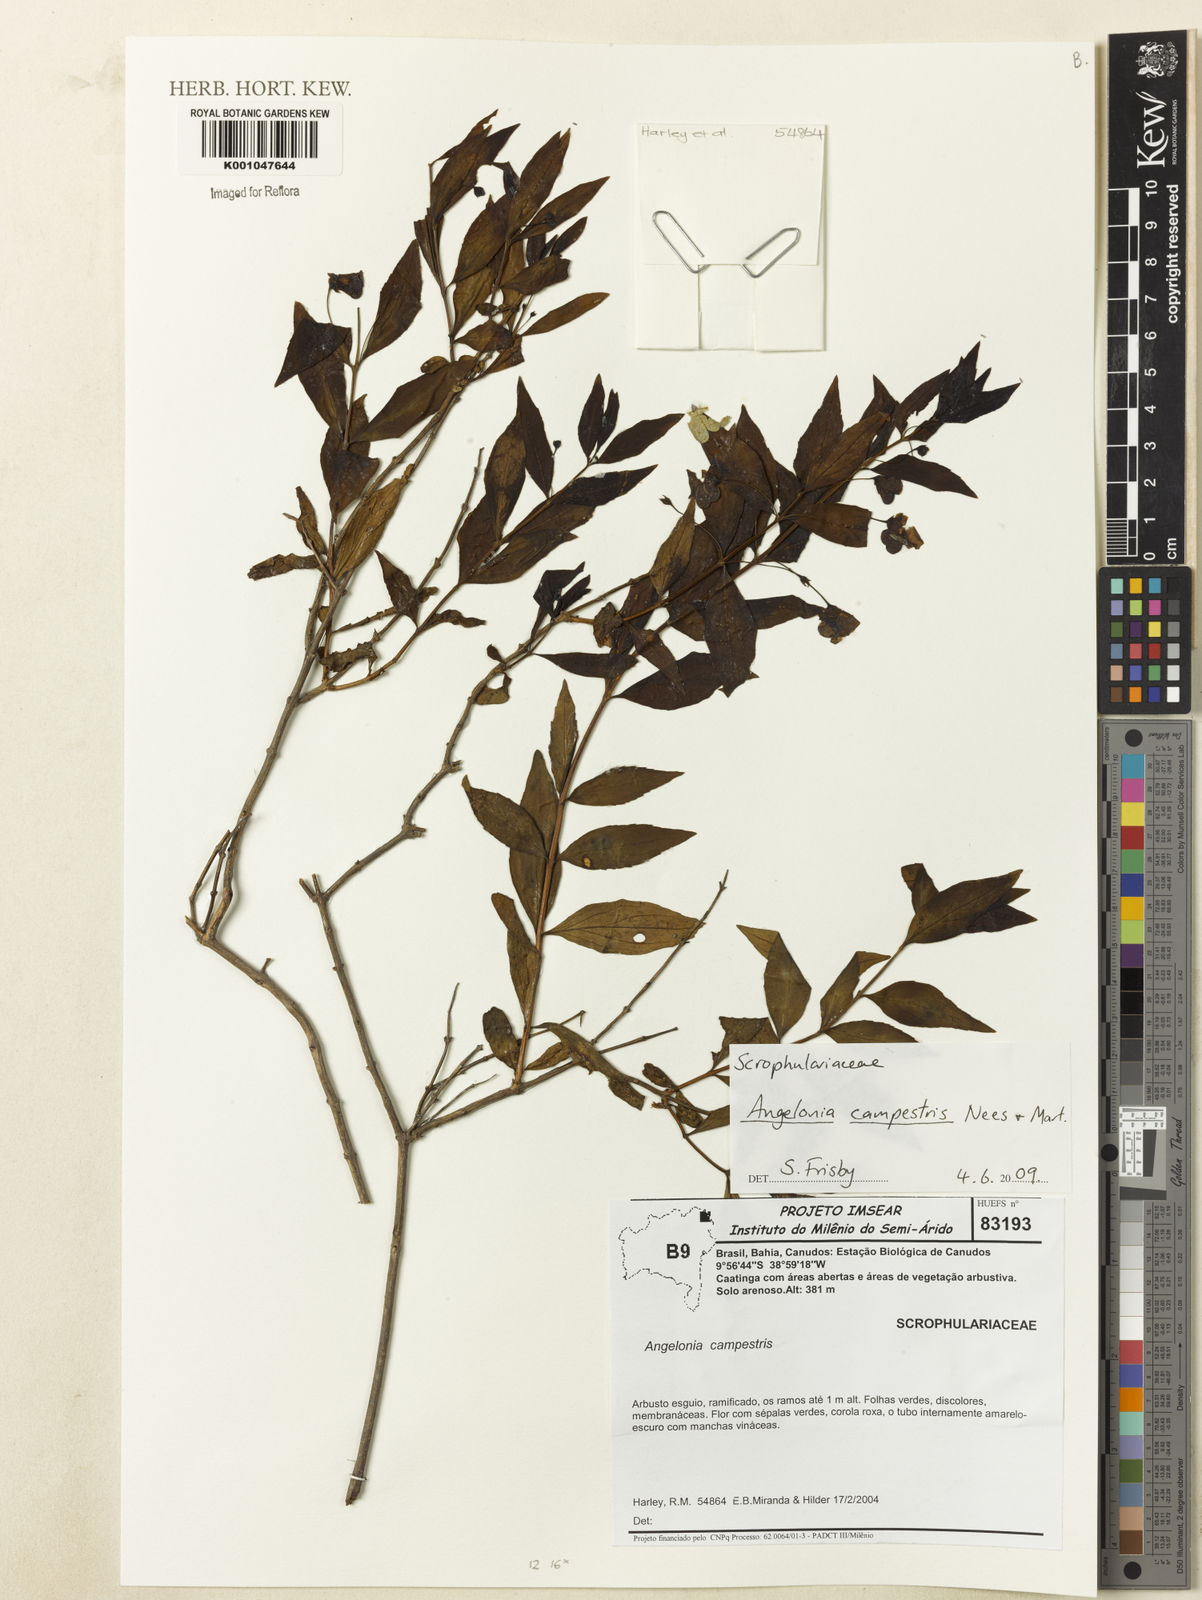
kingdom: Plantae
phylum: Tracheophyta
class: Magnoliopsida
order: Lamiales
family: Plantaginaceae
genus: Angelonia
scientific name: Angelonia campestris
